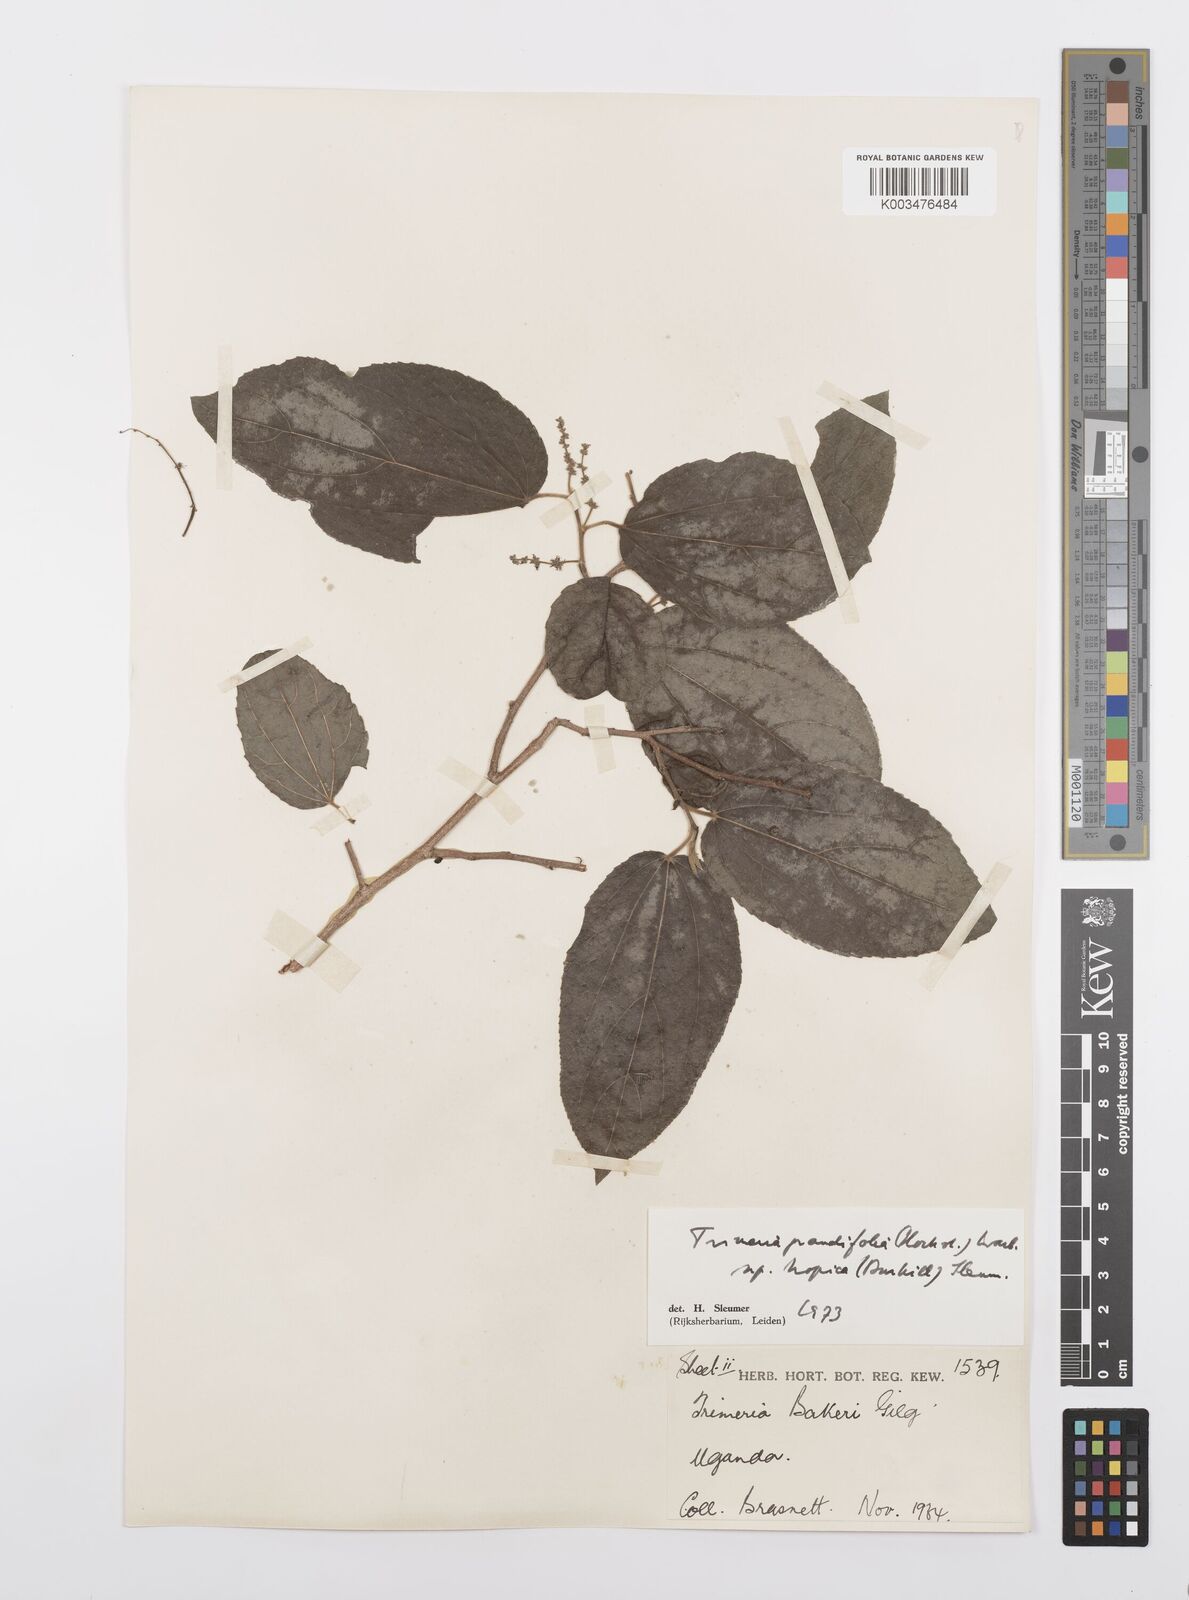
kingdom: Plantae
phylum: Tracheophyta
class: Magnoliopsida
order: Malpighiales
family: Salicaceae
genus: Trimeria
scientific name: Trimeria grandifolia
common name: Wild mulberry
